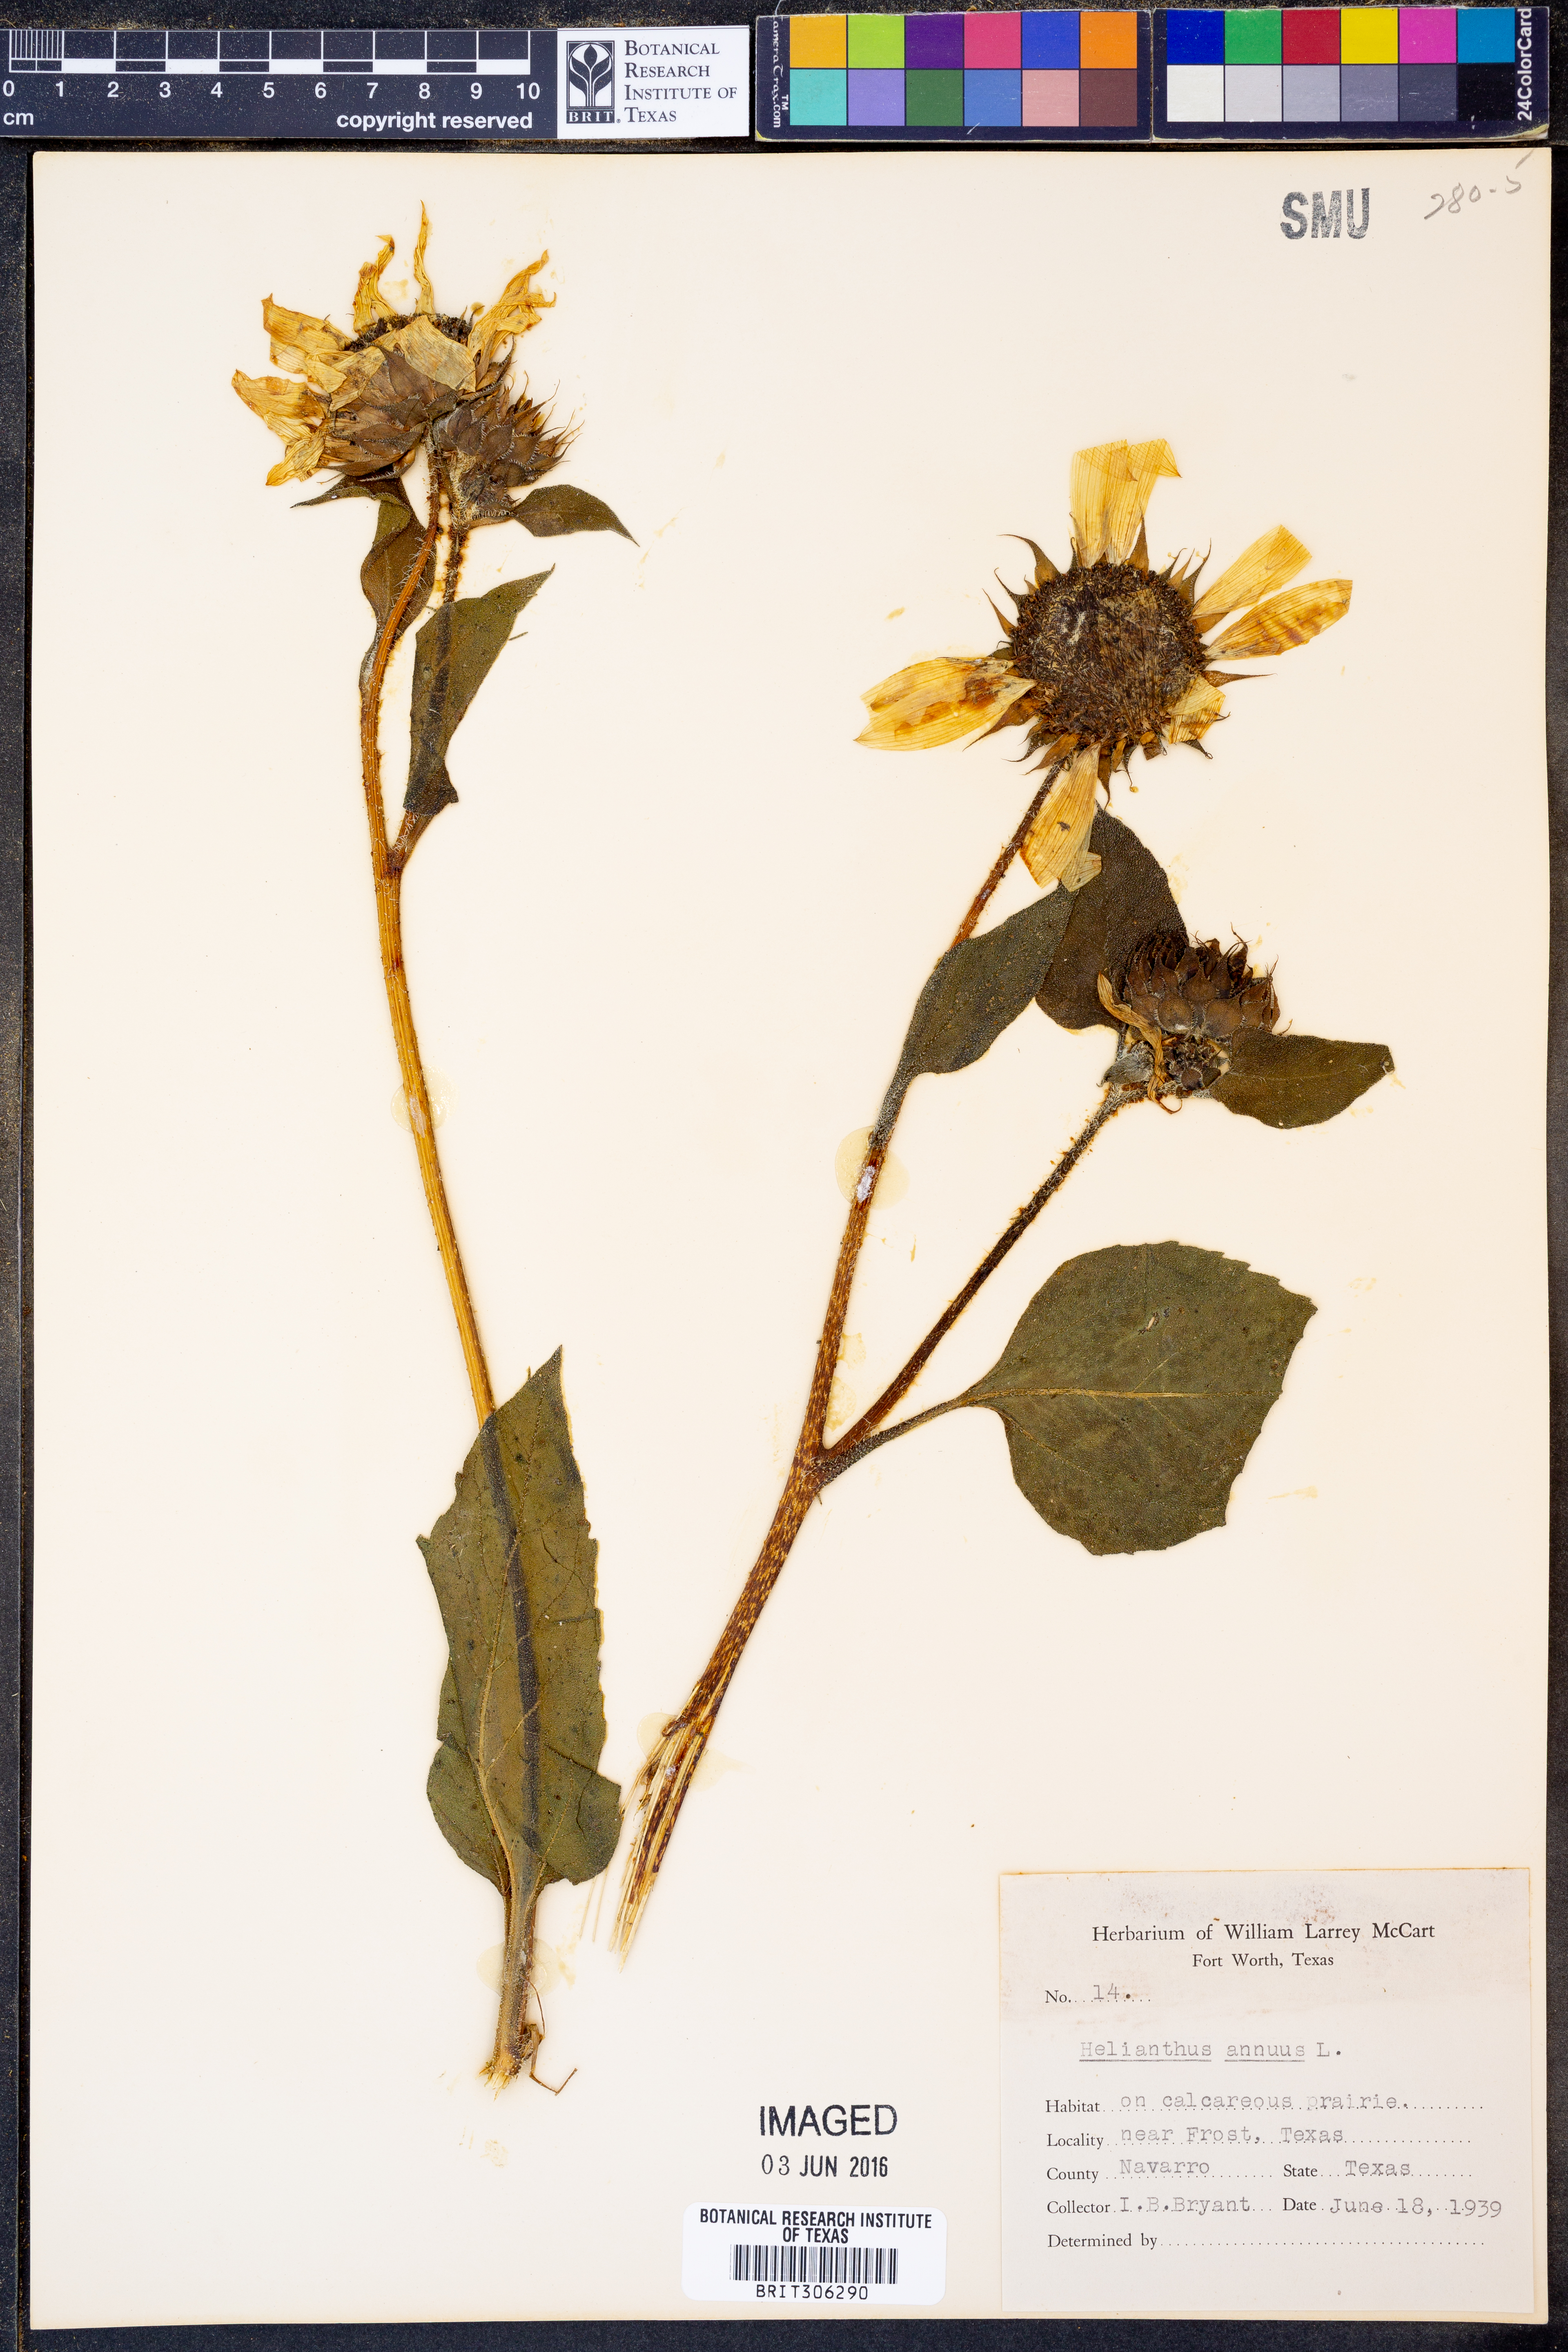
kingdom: Plantae
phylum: Tracheophyta
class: Magnoliopsida
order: Asterales
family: Asteraceae
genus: Helianthus
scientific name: Helianthus annuus
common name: Sunflower
